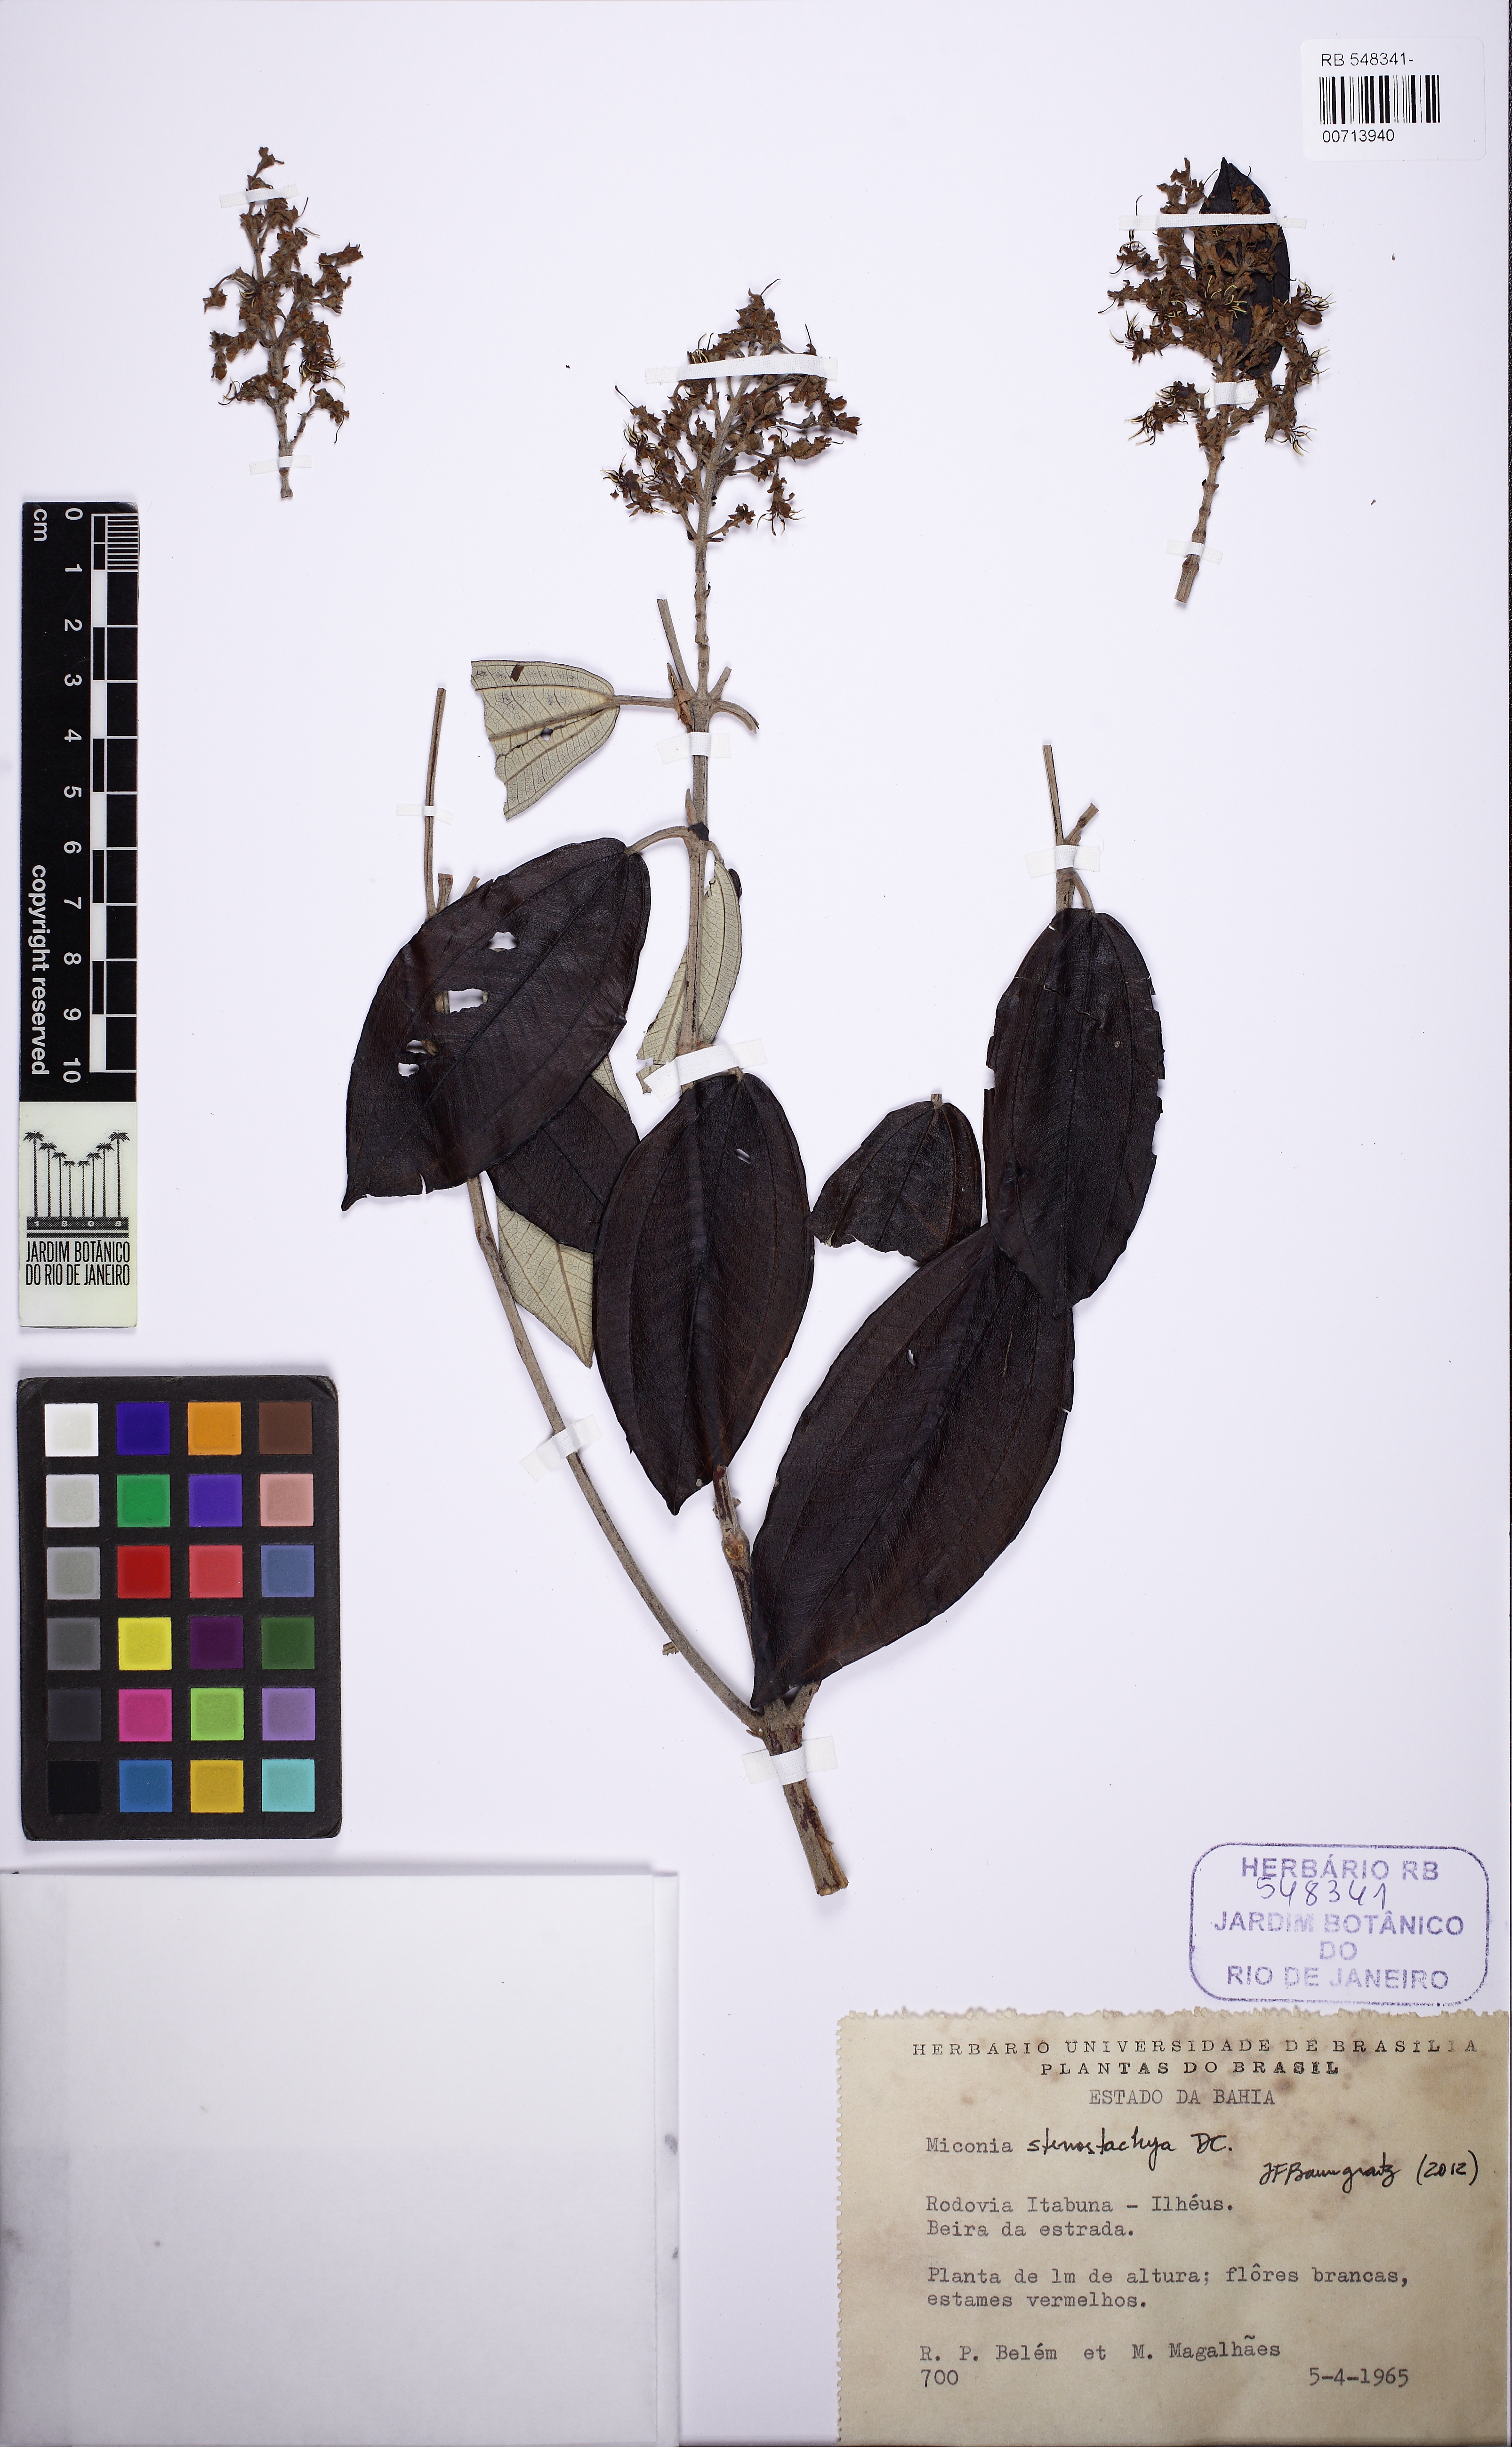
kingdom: Plantae
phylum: Tracheophyta
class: Magnoliopsida
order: Myrtales
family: Melastomataceae
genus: Miconia
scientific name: Miconia stenostachya
